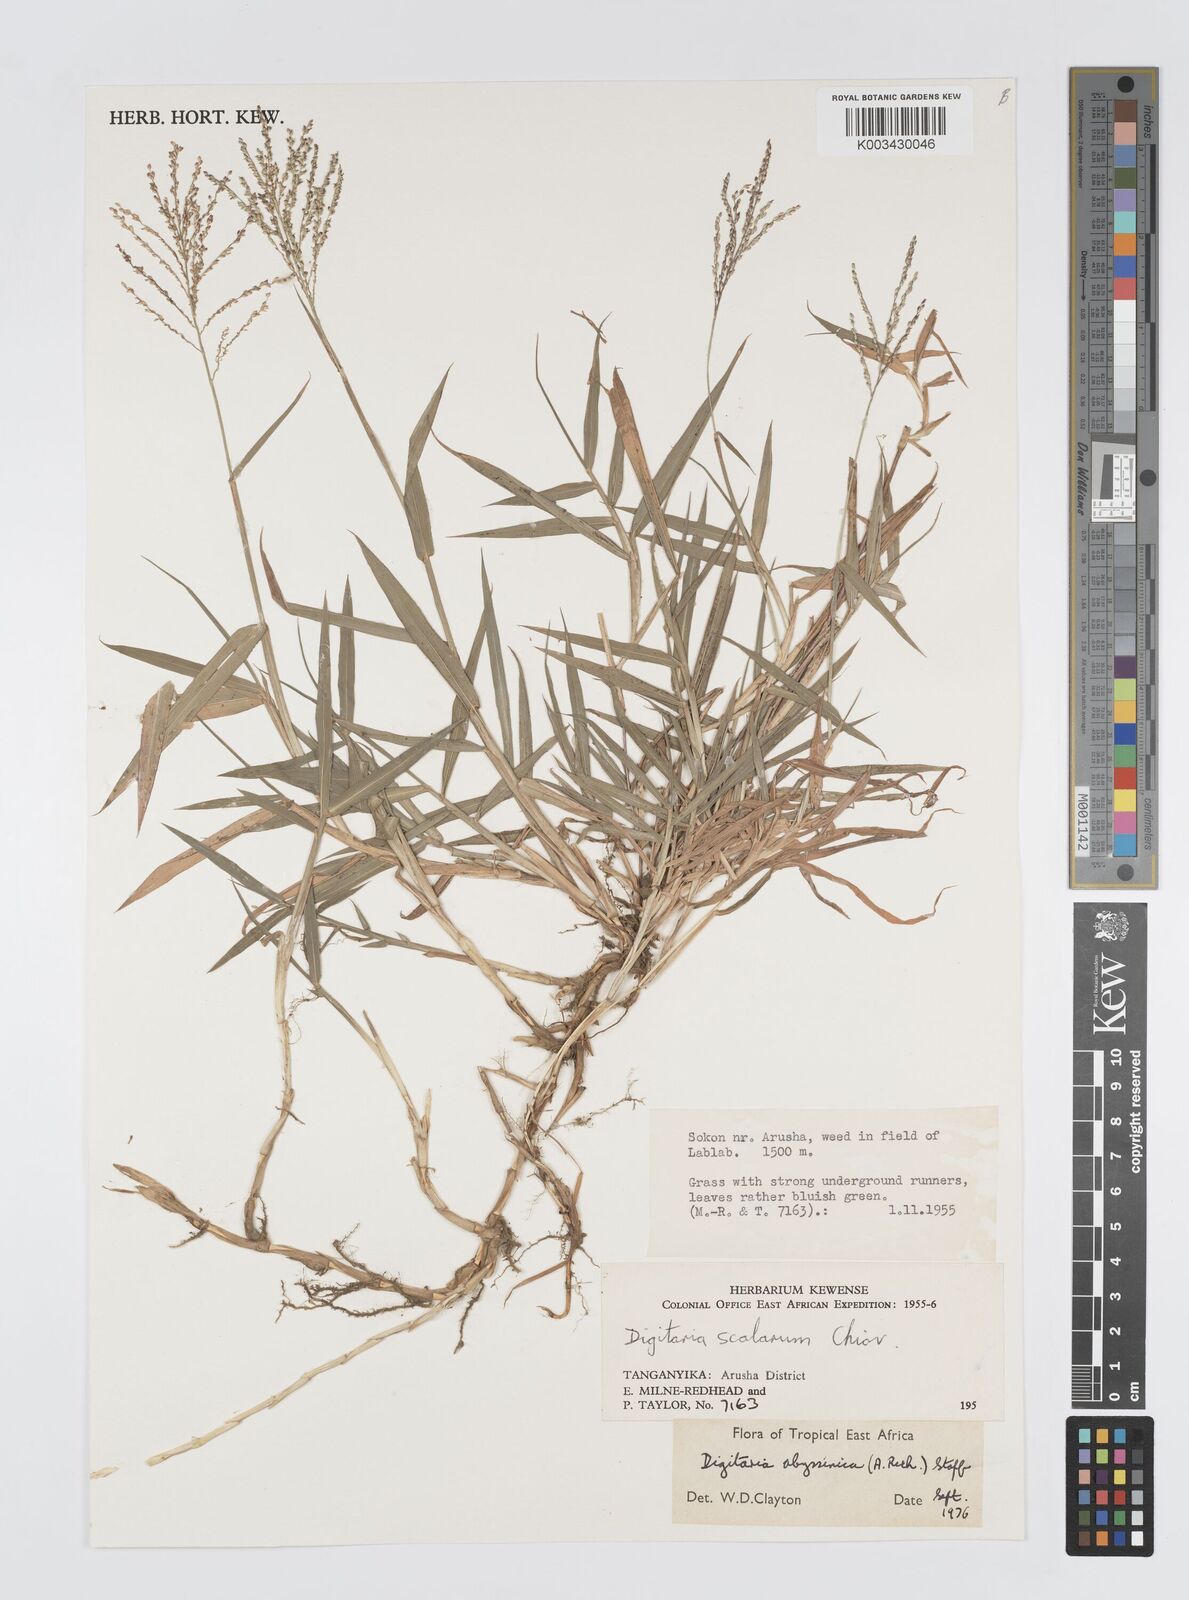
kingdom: Plantae
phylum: Tracheophyta
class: Liliopsida
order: Poales
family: Poaceae
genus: Digitaria
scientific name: Digitaria abyssinica
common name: African couchgrass
